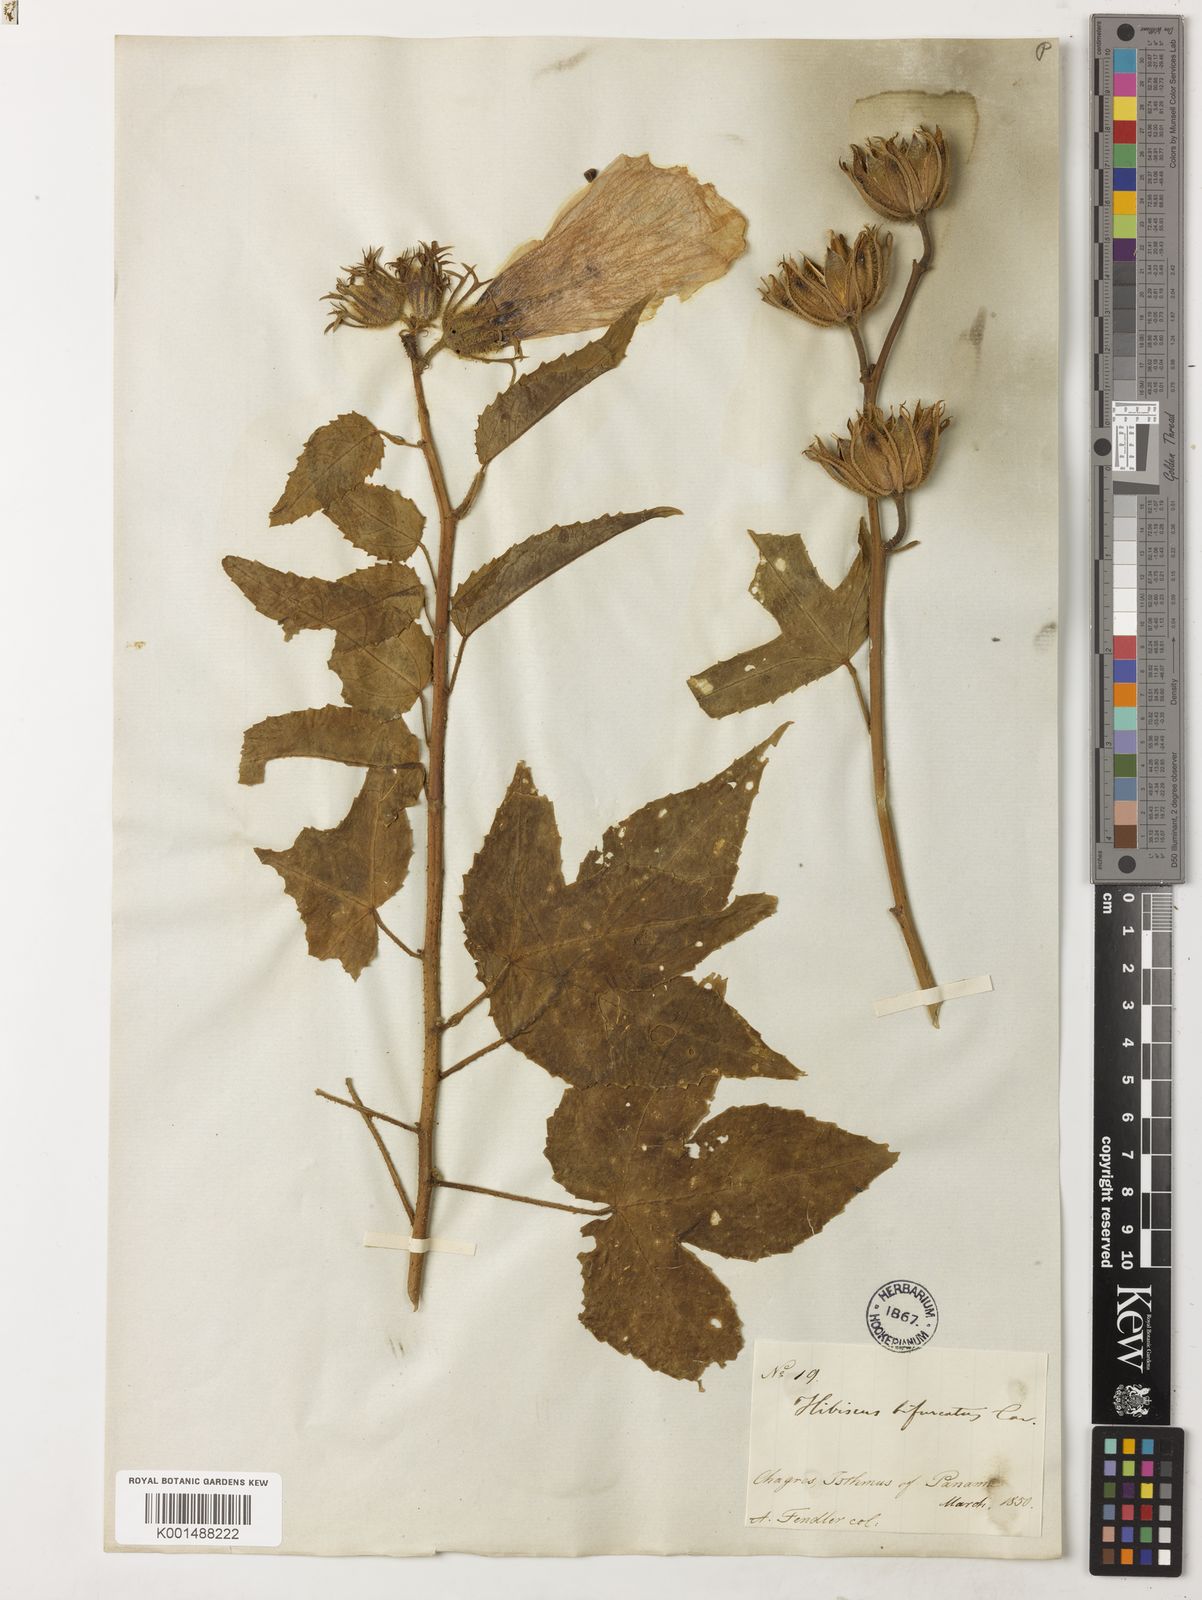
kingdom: Plantae
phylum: Tracheophyta
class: Magnoliopsida
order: Malvales
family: Malvaceae
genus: Hibiscus
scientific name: Hibiscus bifurcatus
